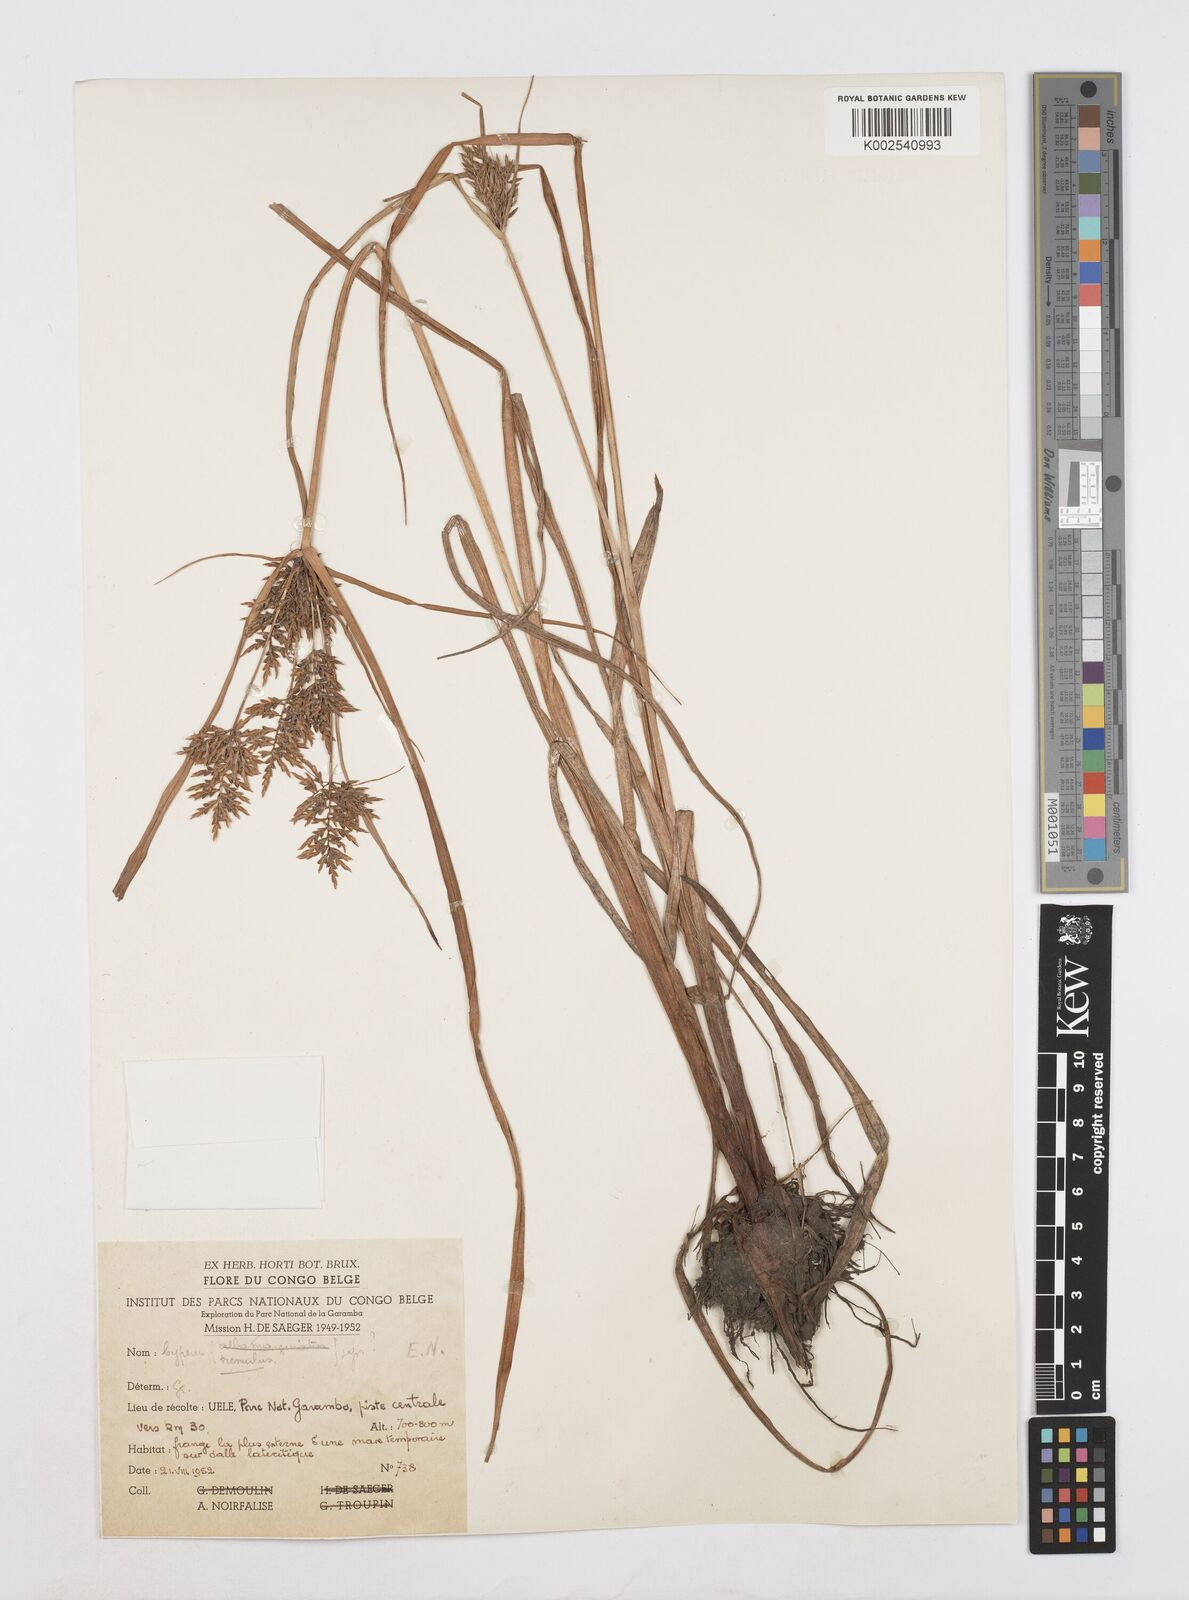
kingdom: Plantae
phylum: Tracheophyta
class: Liliopsida
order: Poales
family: Cyperaceae
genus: Cyperus
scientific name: Cyperus macrostachyos
